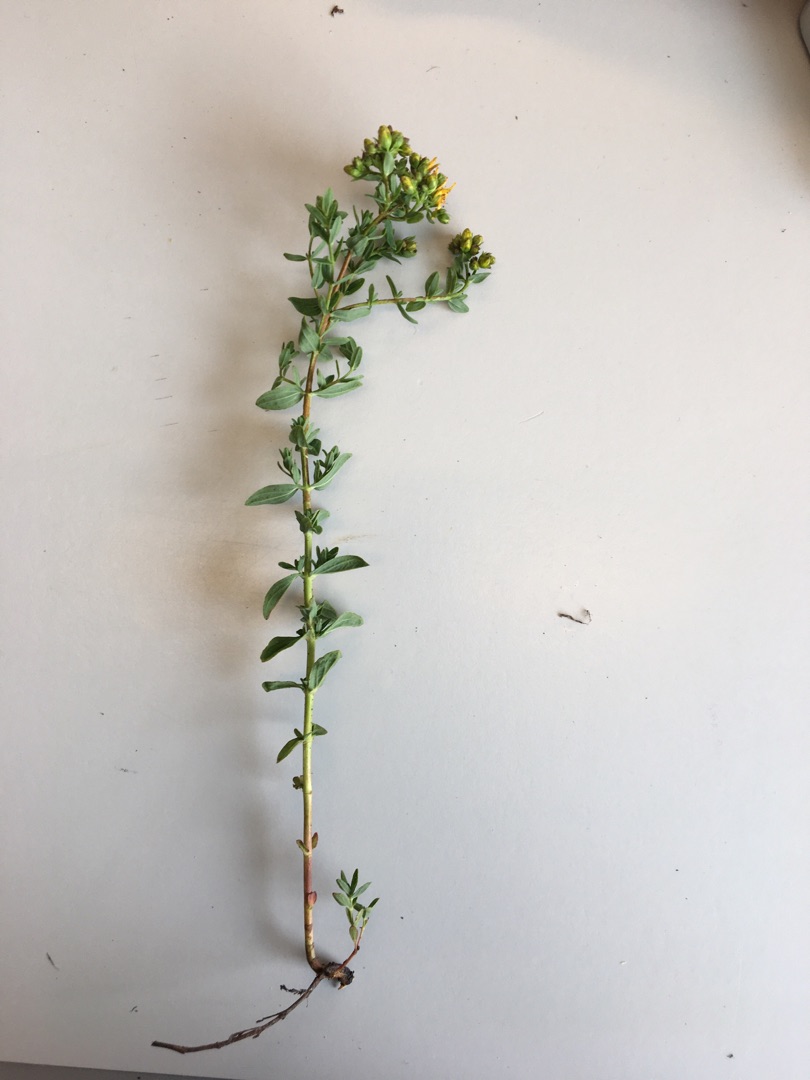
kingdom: Plantae
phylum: Tracheophyta
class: Magnoliopsida
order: Malpighiales
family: Hypericaceae
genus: Hypericum
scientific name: Hypericum perforatum
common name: Prikbladet perikon
